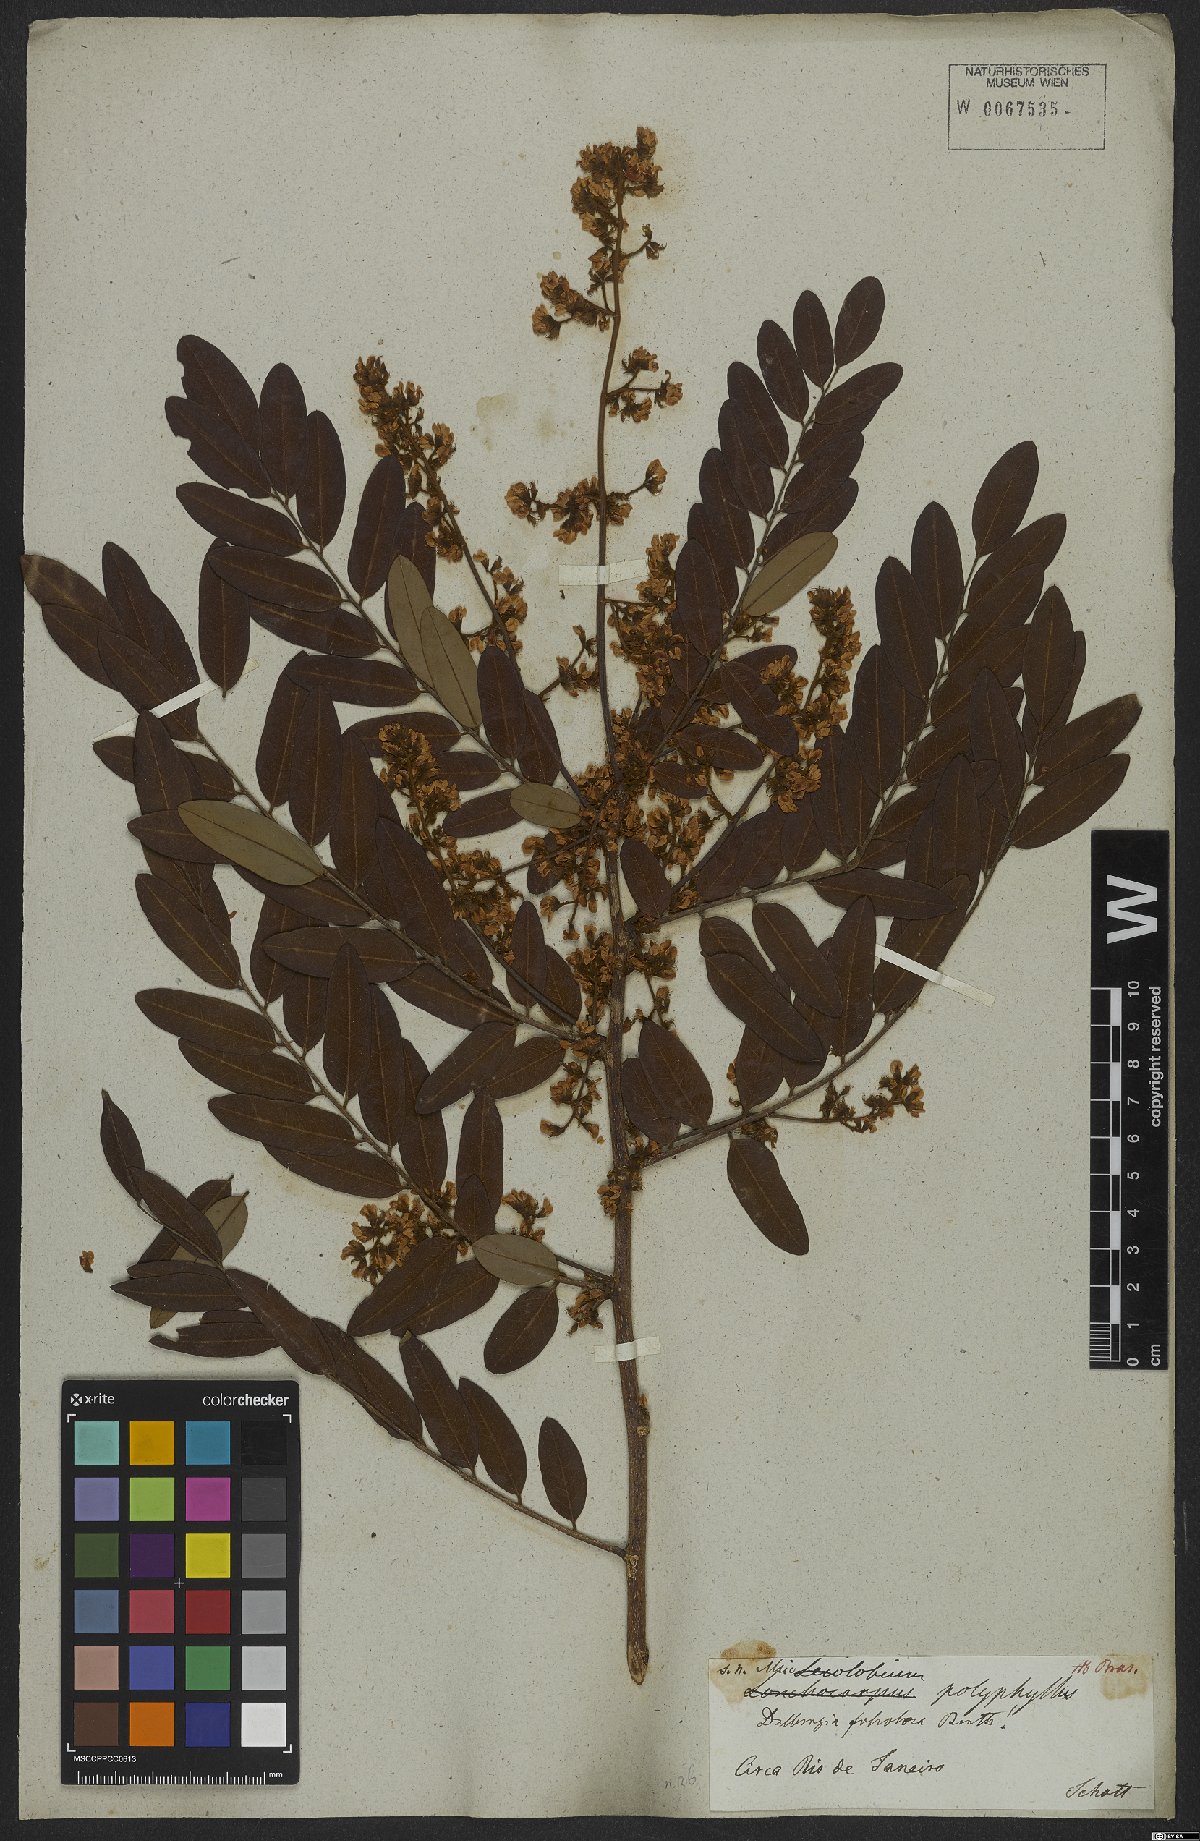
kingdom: Plantae
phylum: Tracheophyta
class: Magnoliopsida
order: Fabales
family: Fabaceae
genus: Dalbergia
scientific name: Dalbergia atropurpurea
